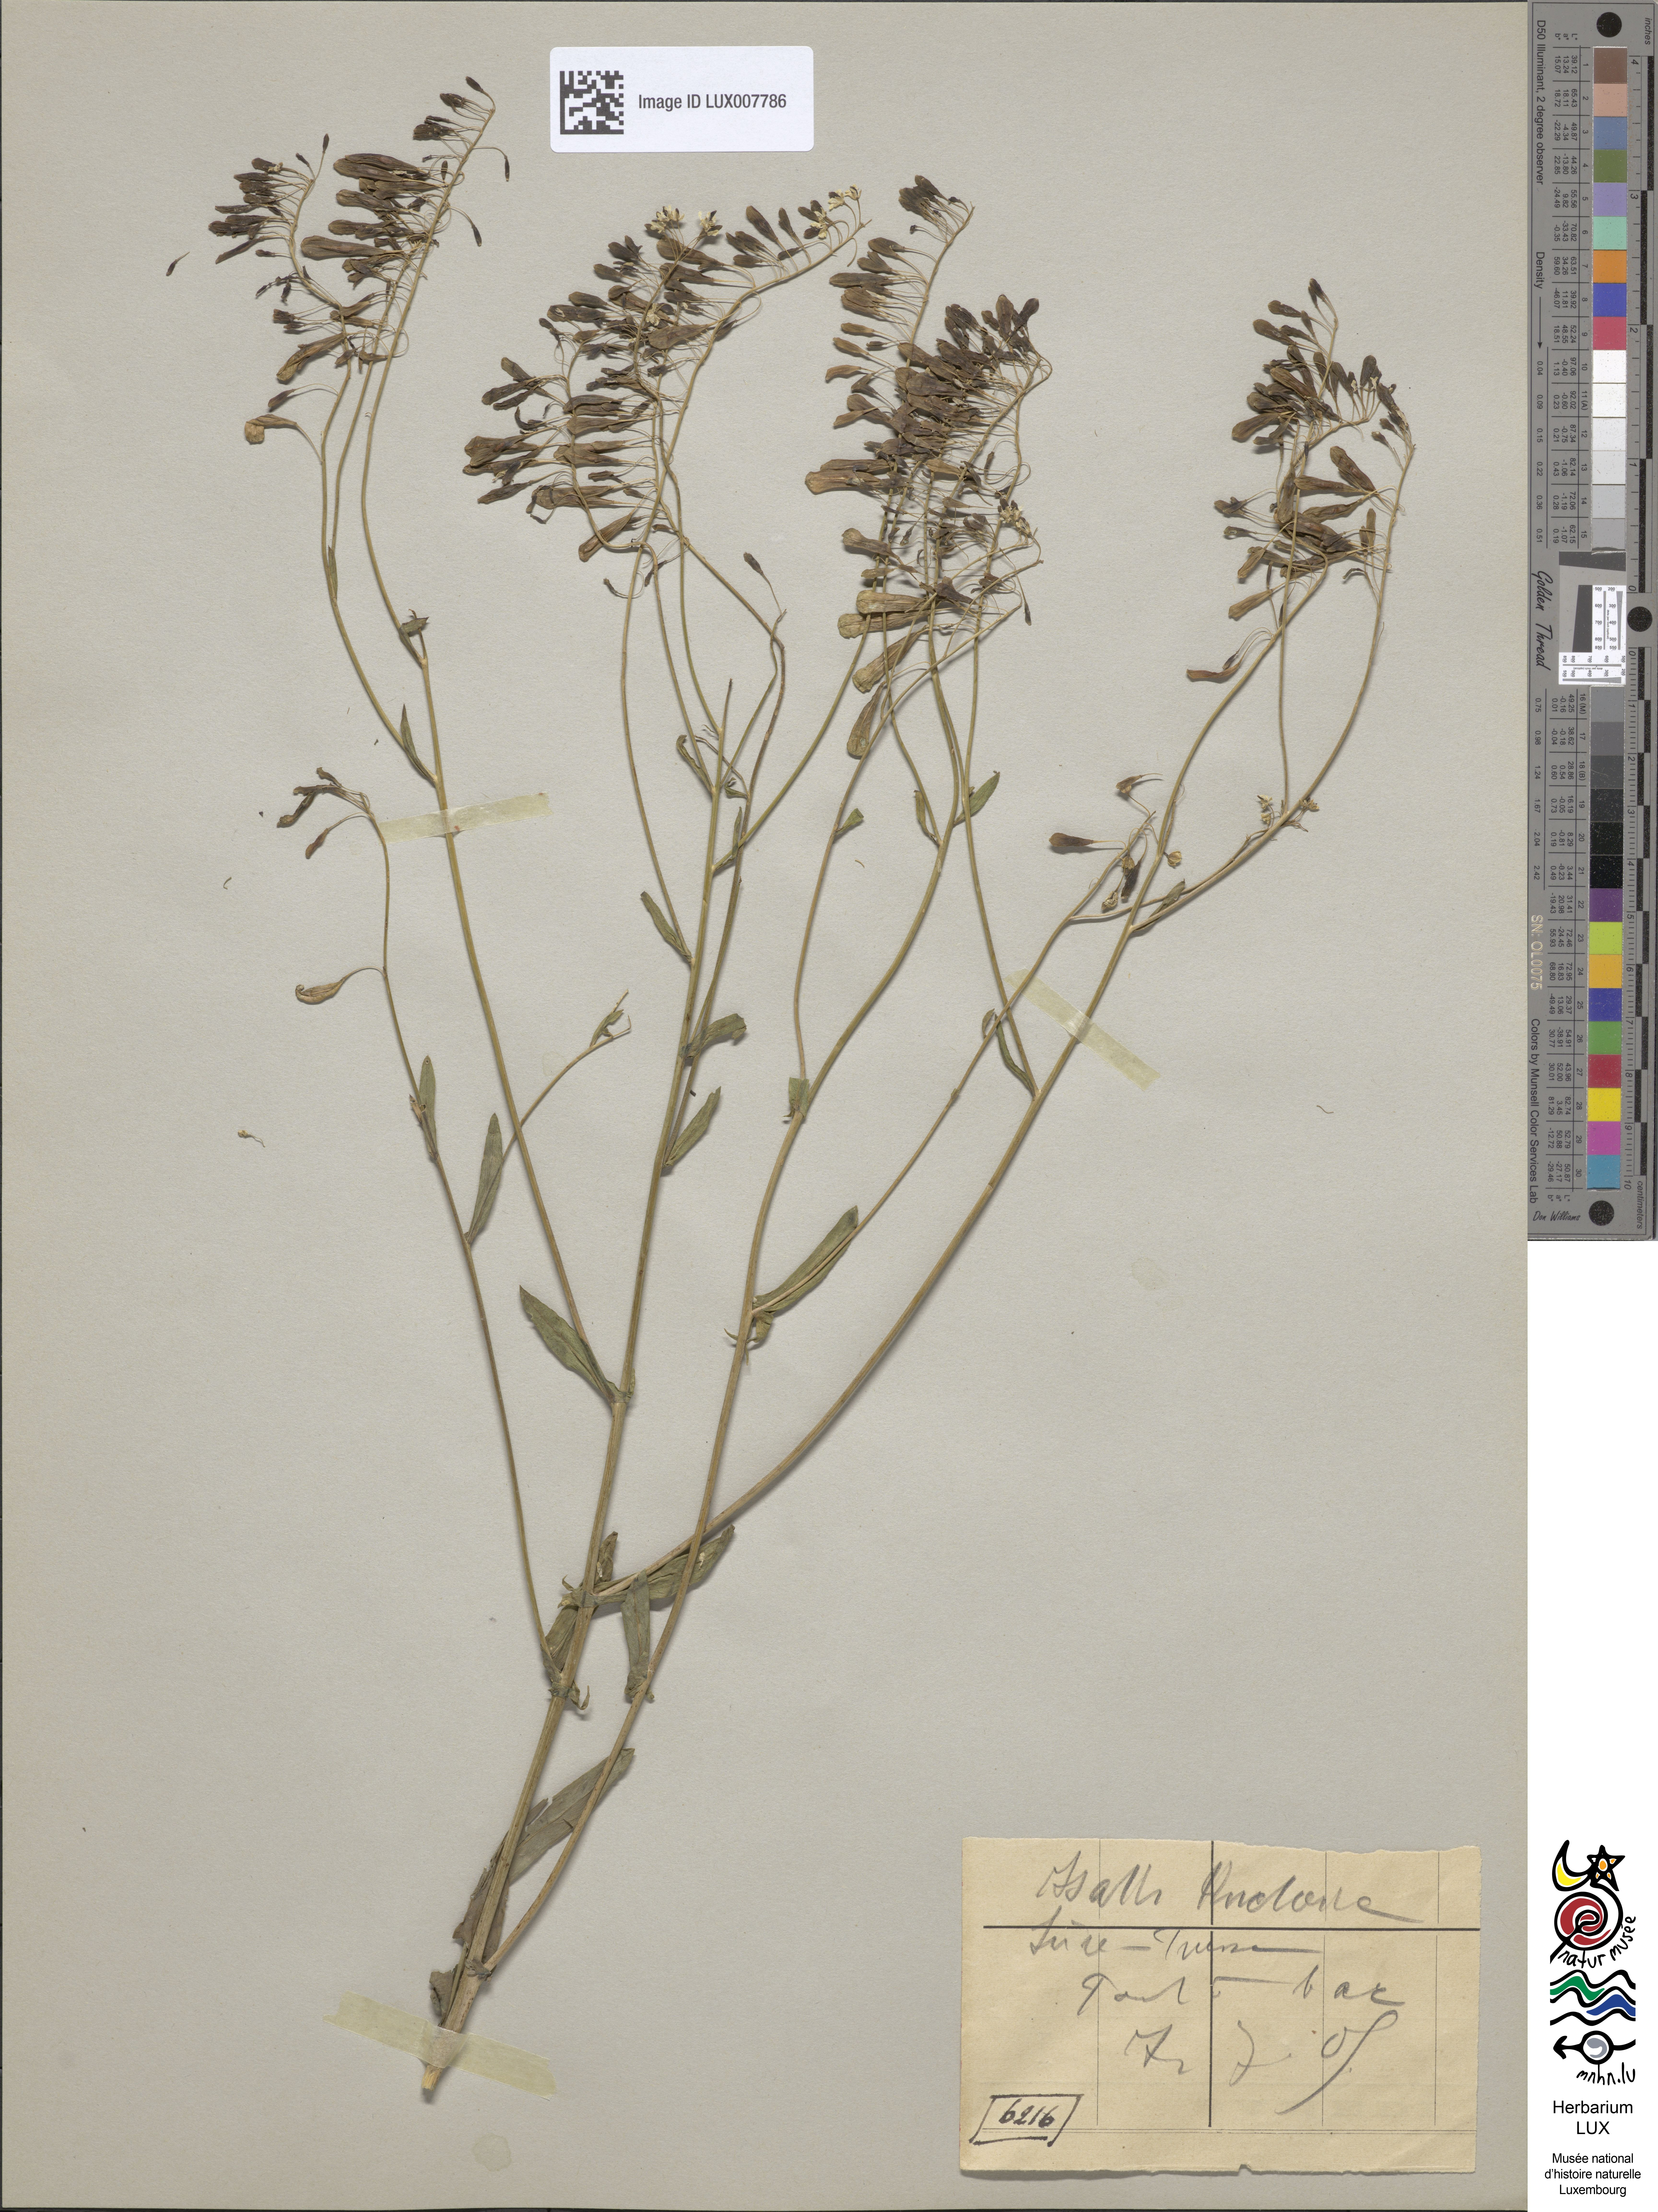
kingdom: Plantae
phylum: Tracheophyta
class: Magnoliopsida
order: Brassicales
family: Brassicaceae
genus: Isatis
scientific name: Isatis tinctoria
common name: Woad
